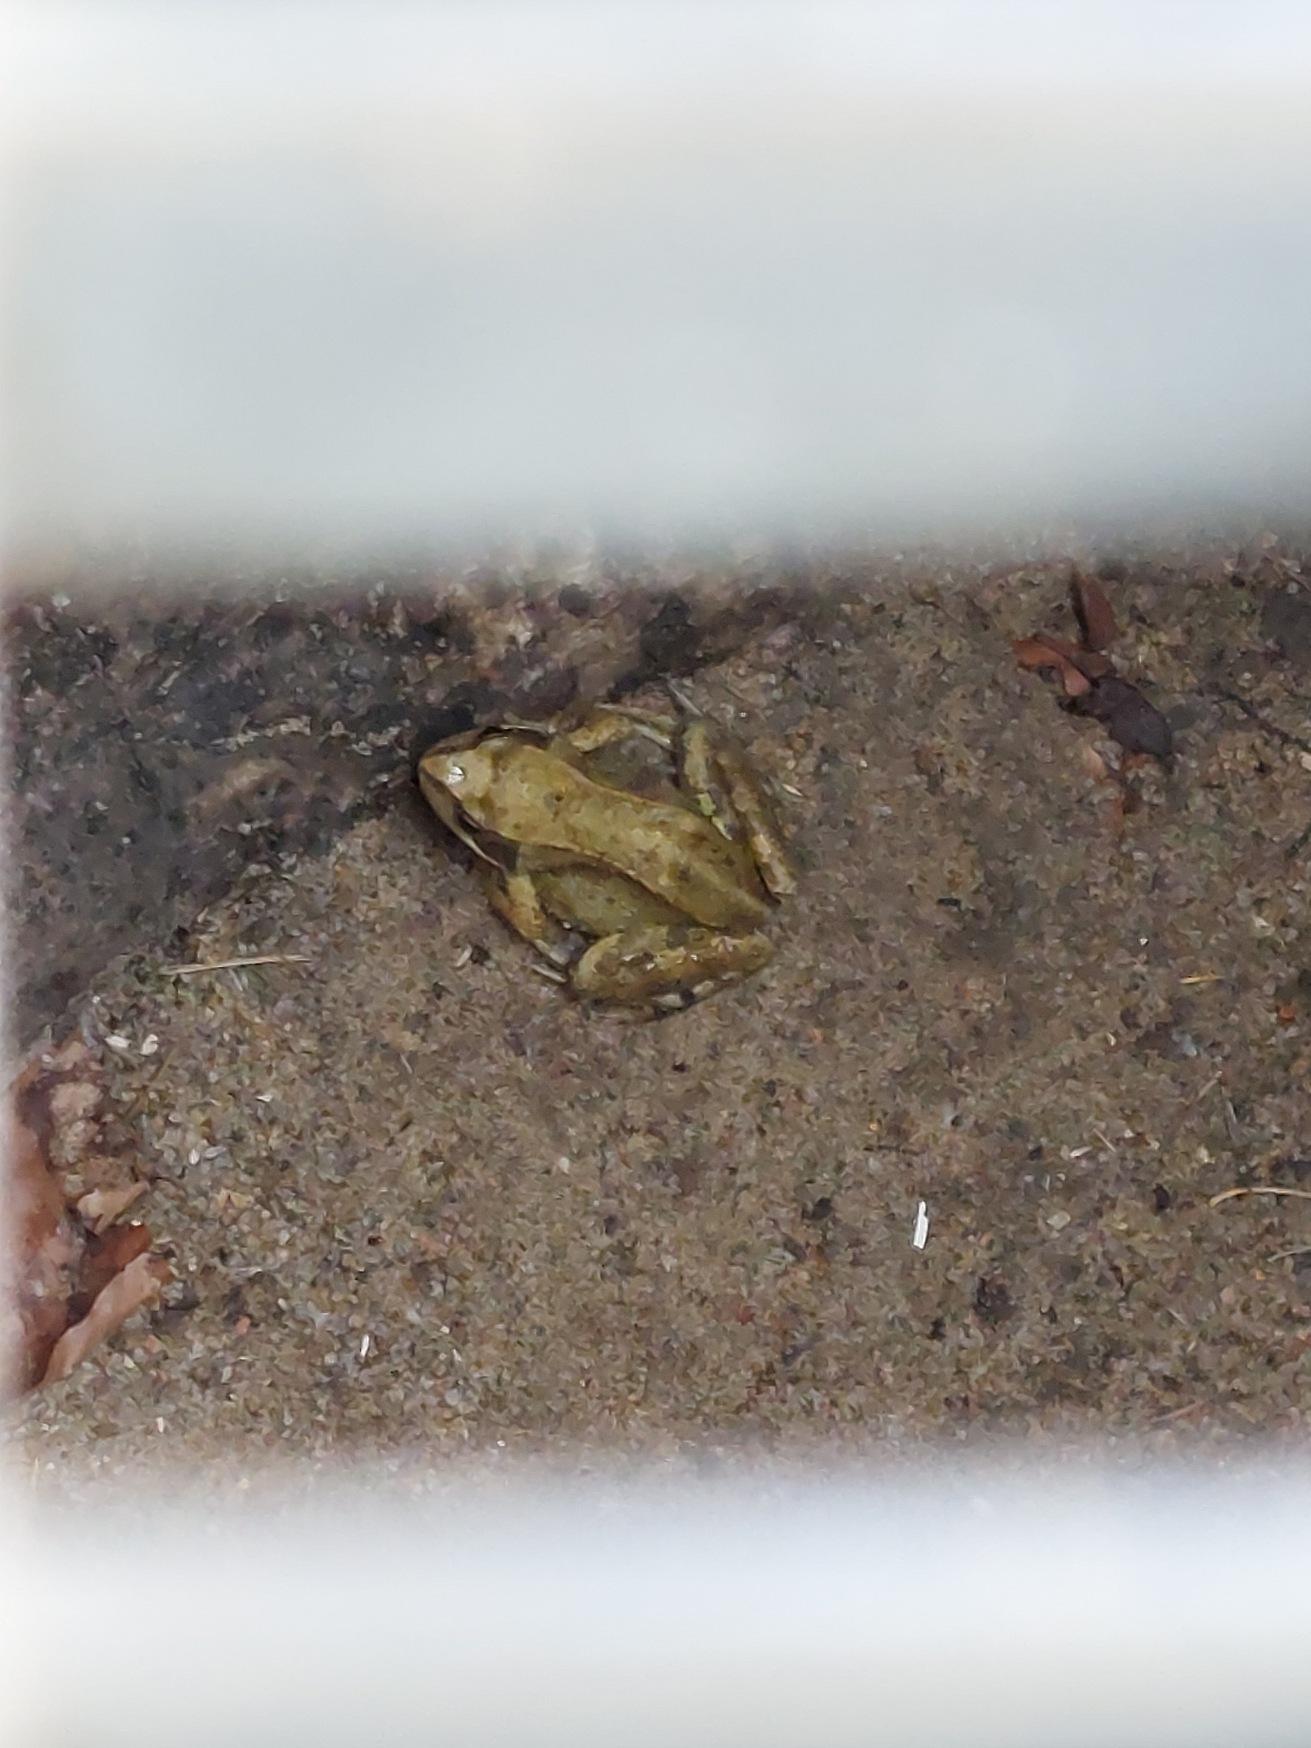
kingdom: Animalia
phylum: Chordata
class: Amphibia
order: Anura
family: Ranidae
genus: Rana
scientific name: Rana temporaria
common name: Butsnudet frø
